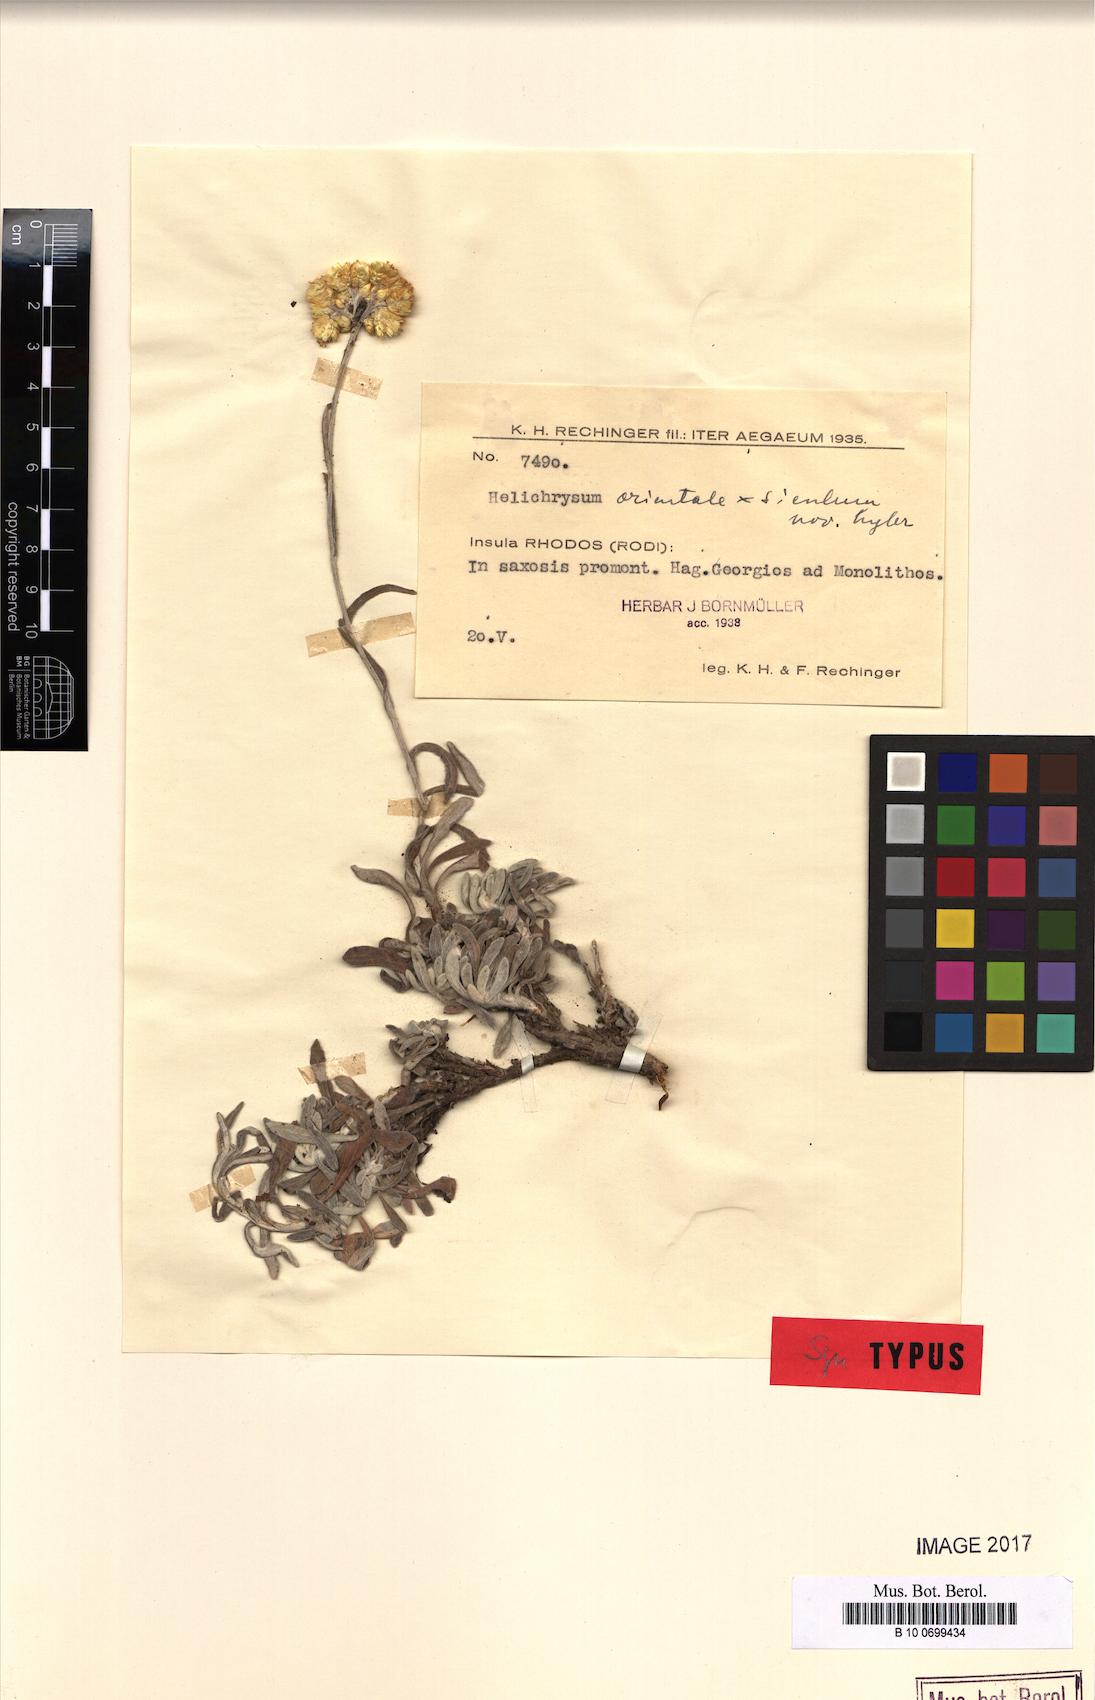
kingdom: Plantae
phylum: Tracheophyta
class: Magnoliopsida
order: Asterales
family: Asteraceae
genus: Helichrysum
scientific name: Helichrysum
